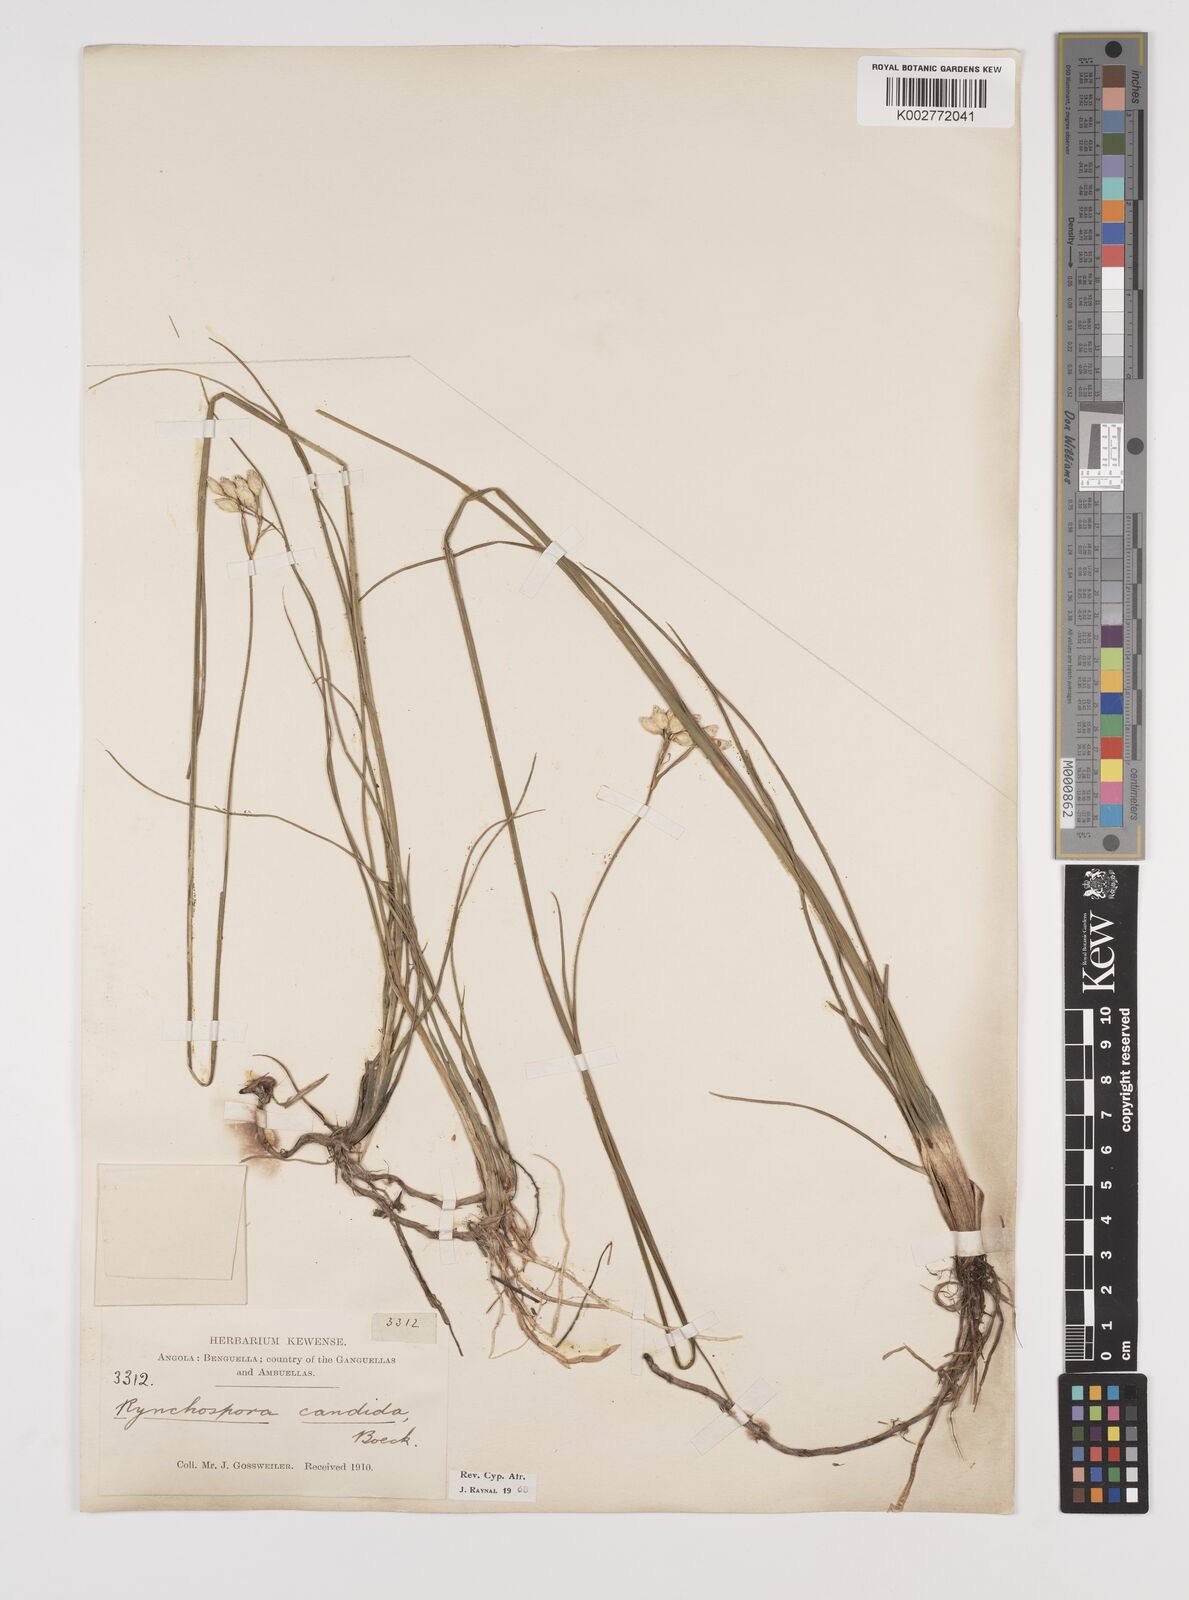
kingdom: Plantae
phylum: Tracheophyta
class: Liliopsida
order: Poales
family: Cyperaceae
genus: Rhynchospora
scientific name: Rhynchospora candida
